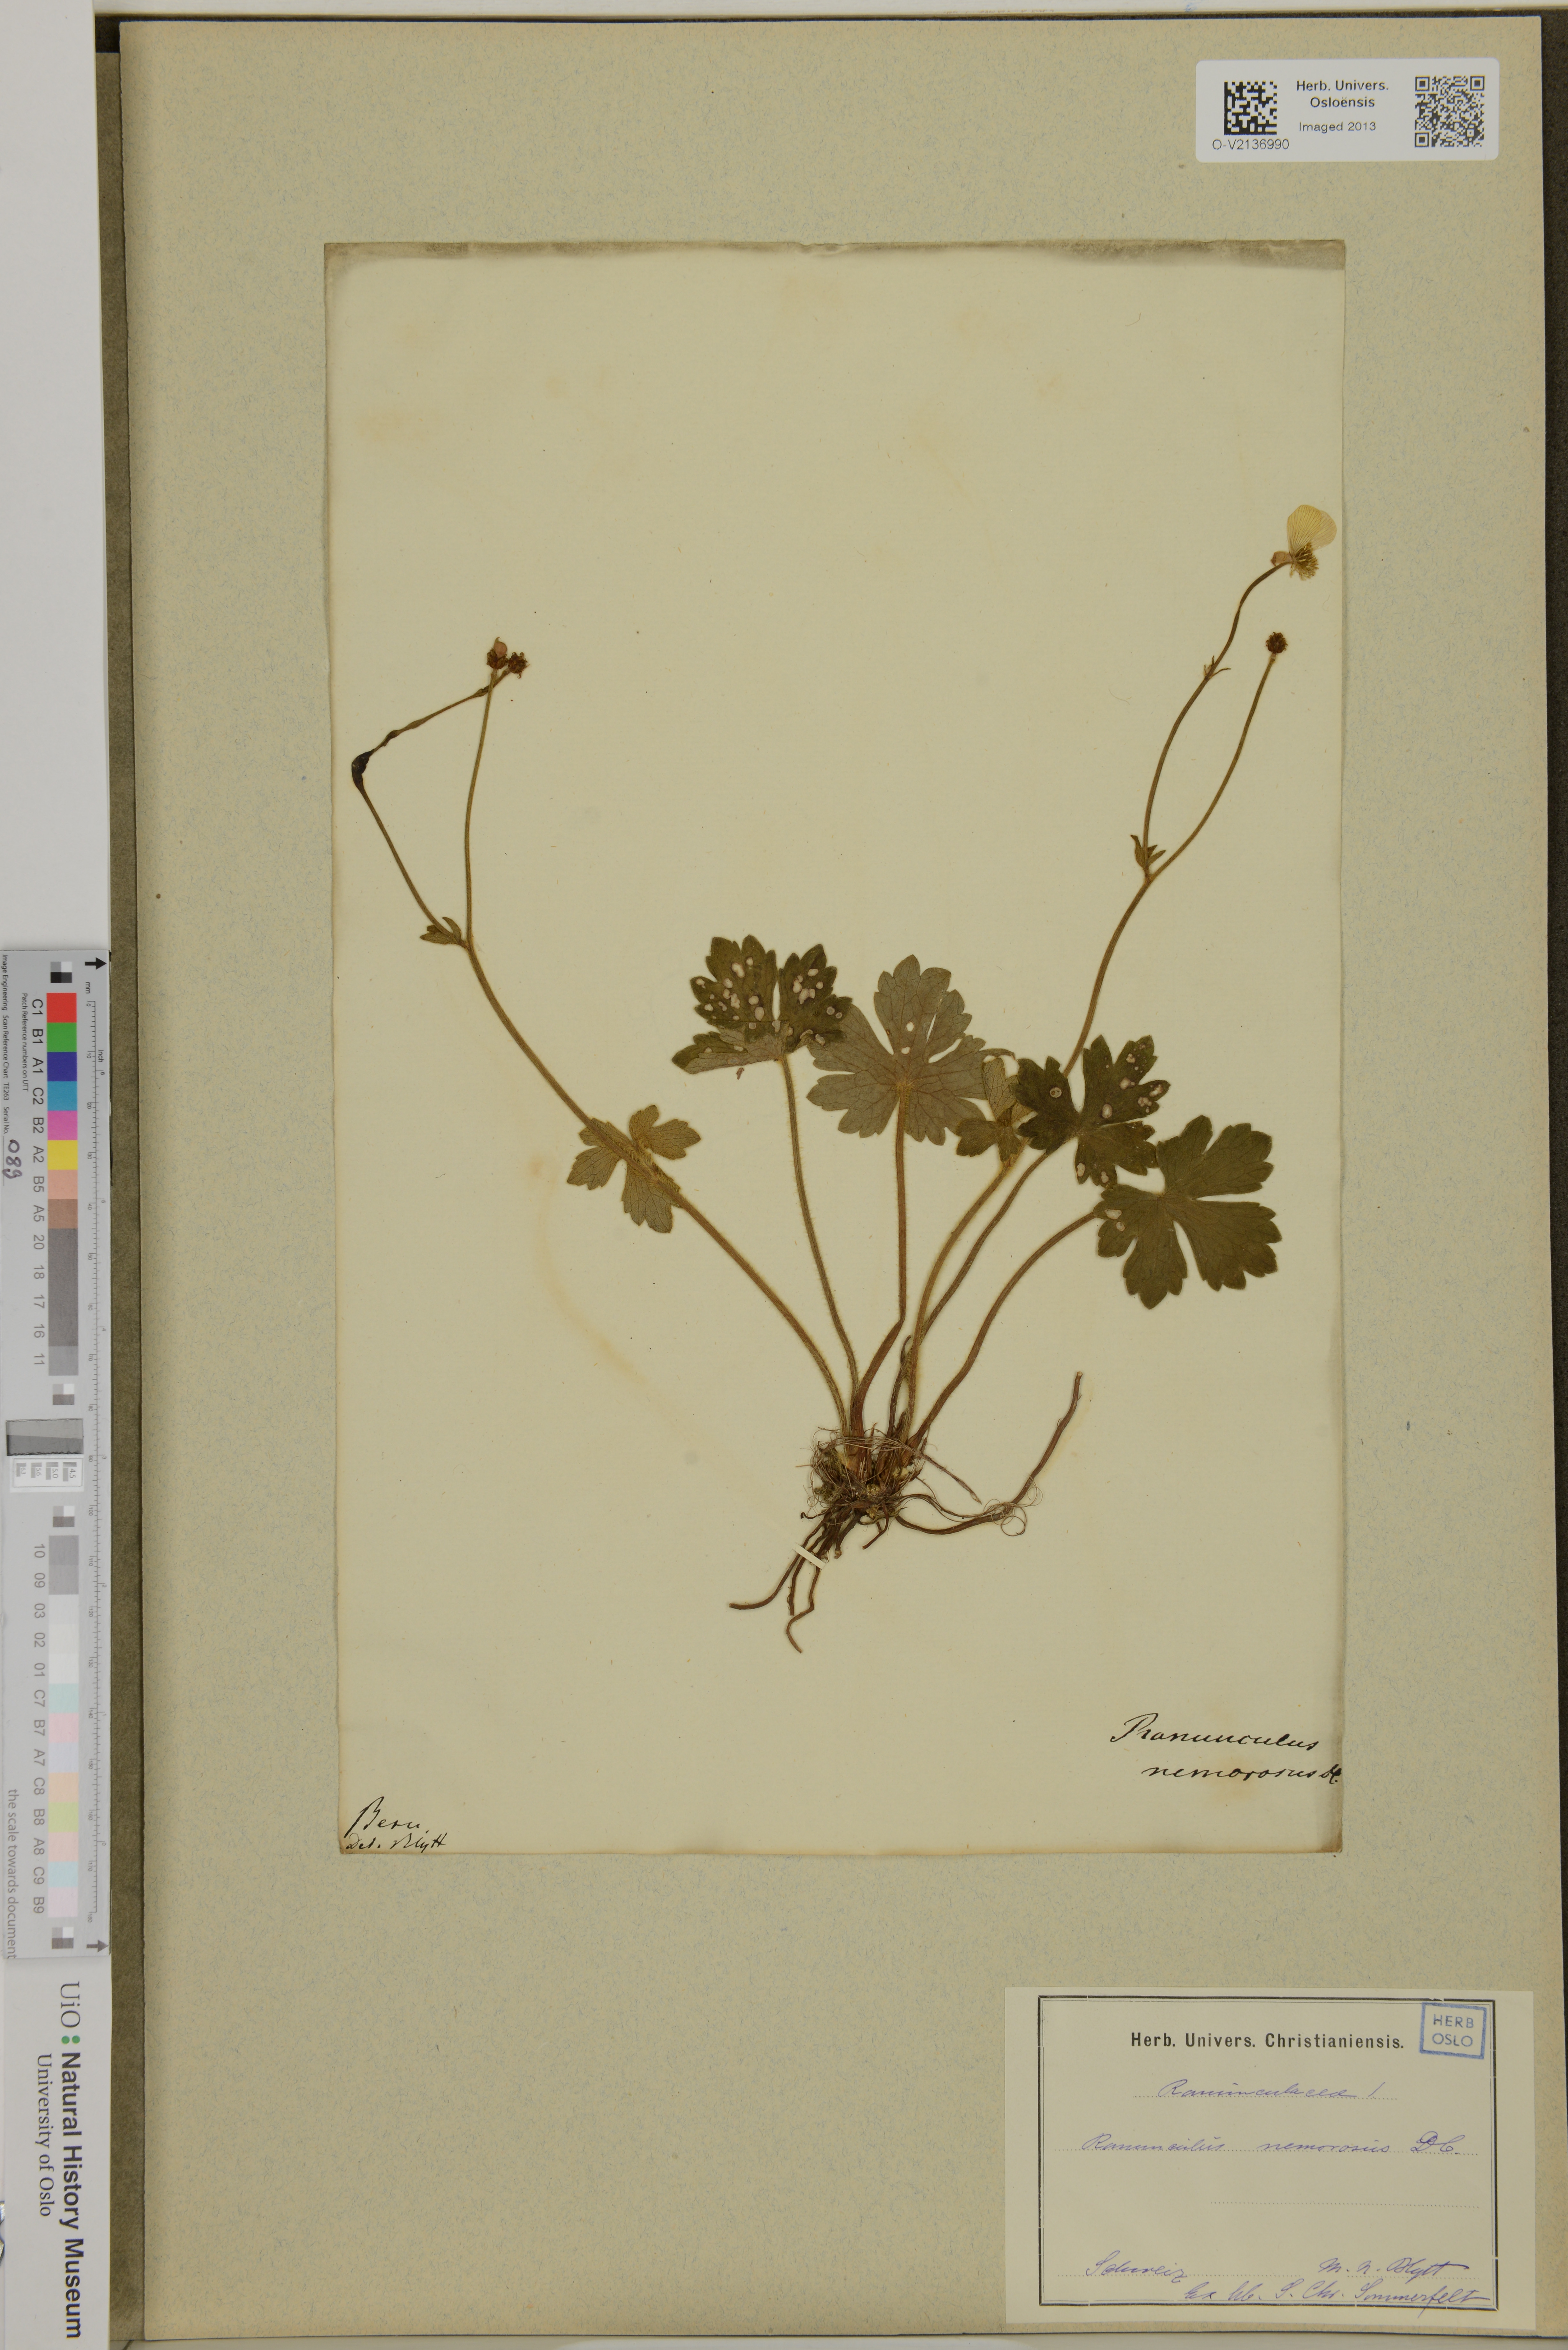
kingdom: Plantae
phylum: Tracheophyta
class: Magnoliopsida
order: Ranunculales
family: Ranunculaceae
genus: Ranunculus
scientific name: Ranunculus polyanthemos
